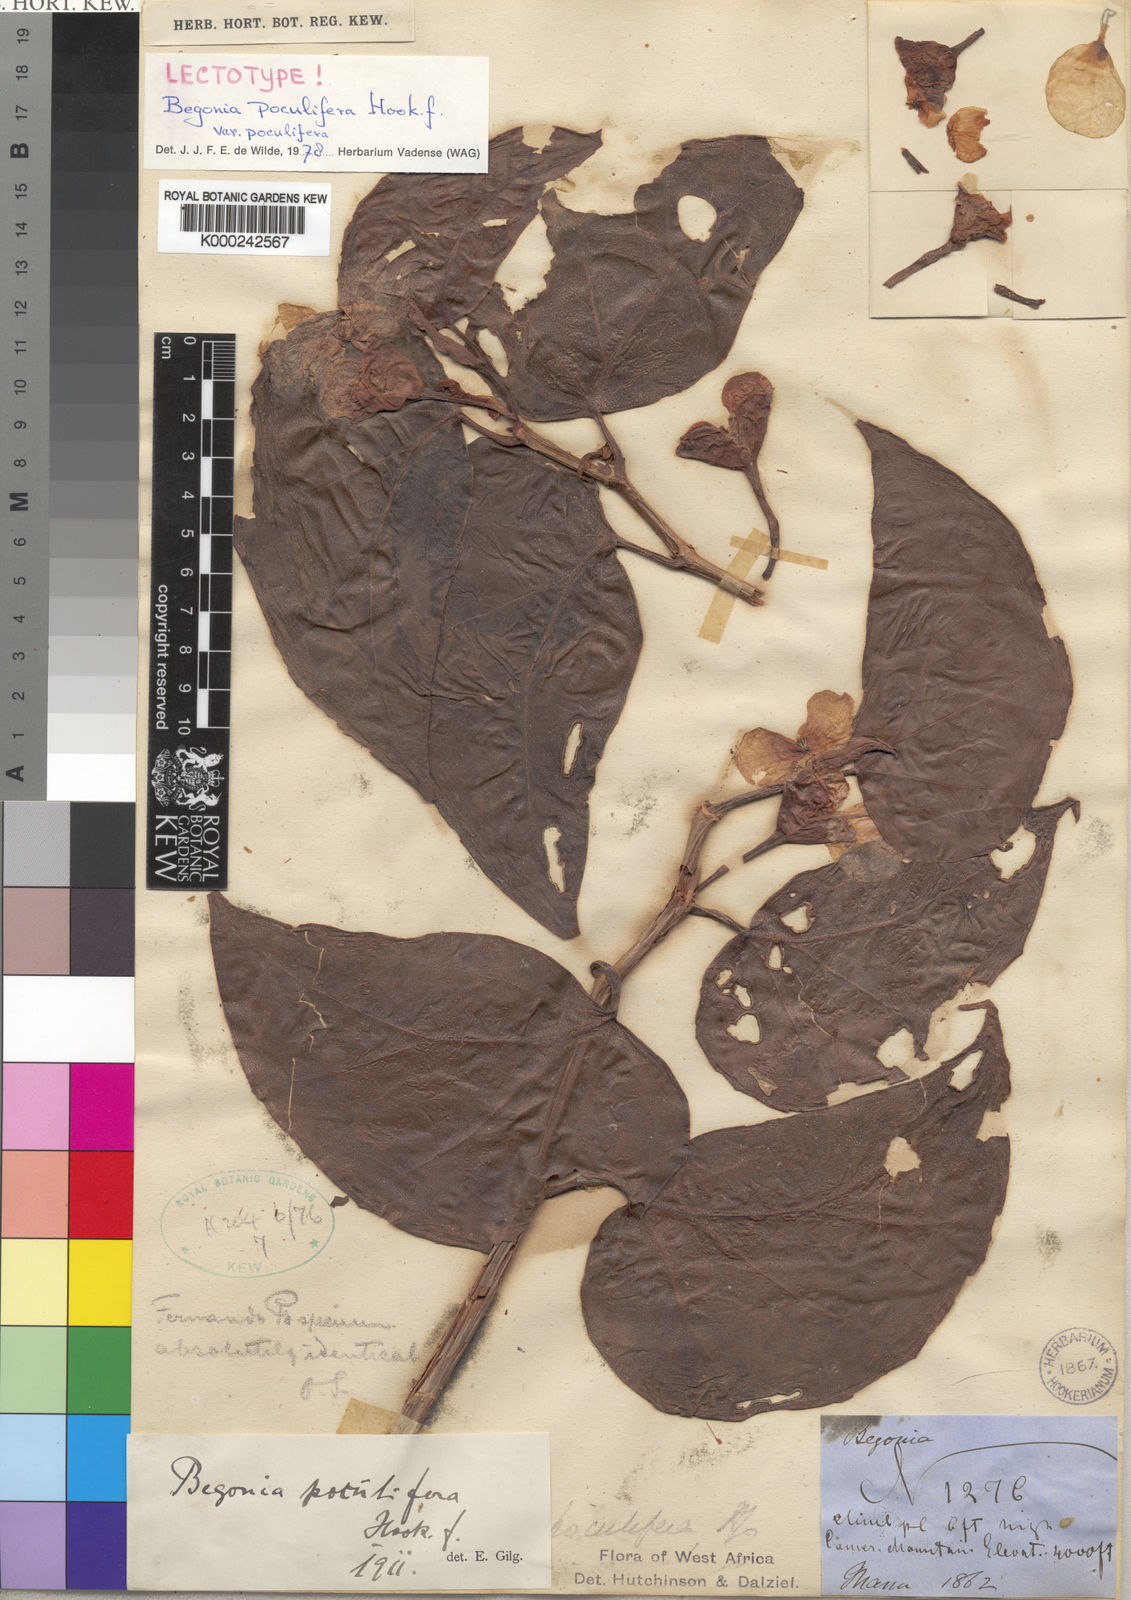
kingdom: Plantae
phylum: Tracheophyta
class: Magnoliopsida
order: Cucurbitales
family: Begoniaceae
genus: Begonia
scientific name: Begonia poculifera
